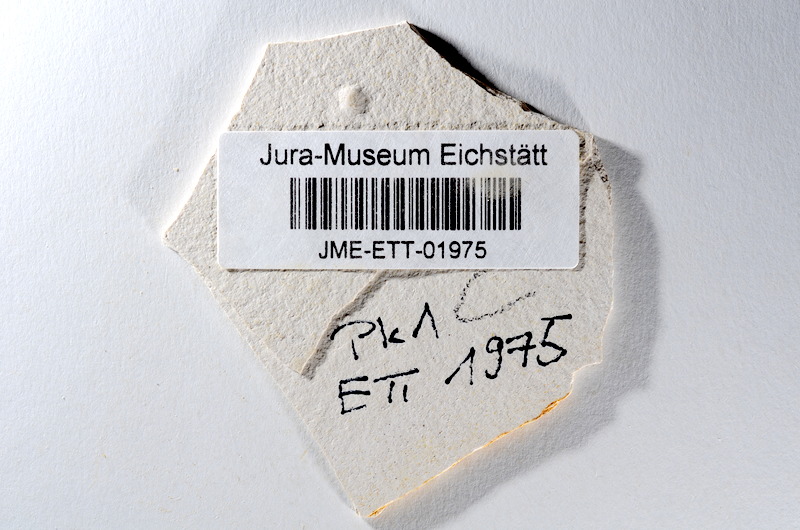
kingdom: Animalia
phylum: Chordata
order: Salmoniformes
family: Orthogonikleithridae
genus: Orthogonikleithrus
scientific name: Orthogonikleithrus hoelli
